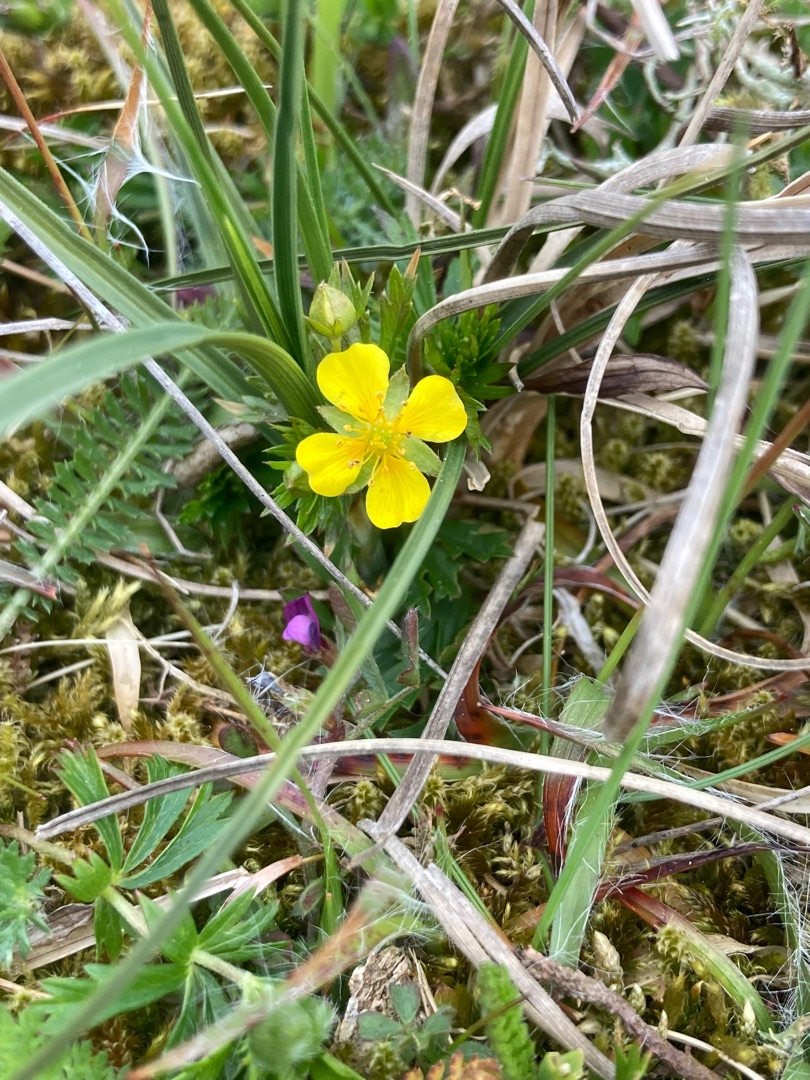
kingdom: Plantae
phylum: Tracheophyta
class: Magnoliopsida
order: Rosales
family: Rosaceae
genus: Potentilla
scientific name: Potentilla erecta
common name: Tormentil
